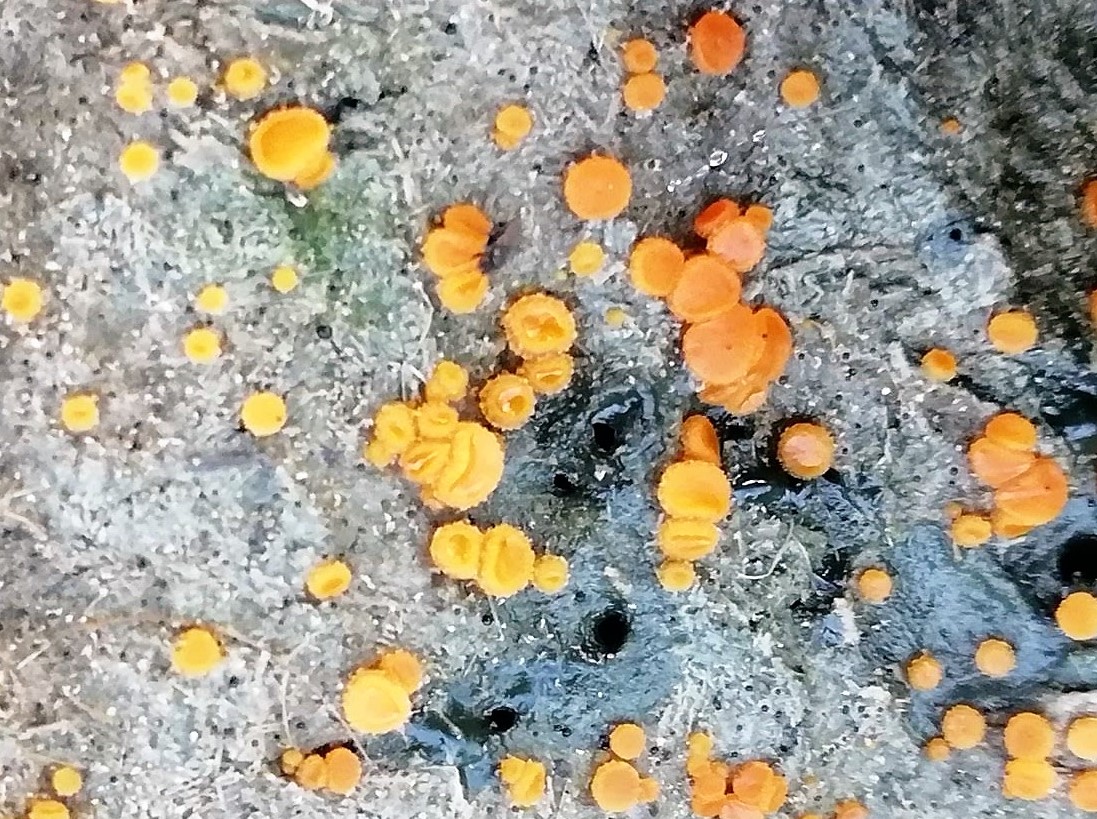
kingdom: Fungi
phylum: Ascomycota
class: Pezizomycetes
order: Pezizales
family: Pyronemataceae
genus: Cheilymenia
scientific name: Cheilymenia granulata
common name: møgbæger
